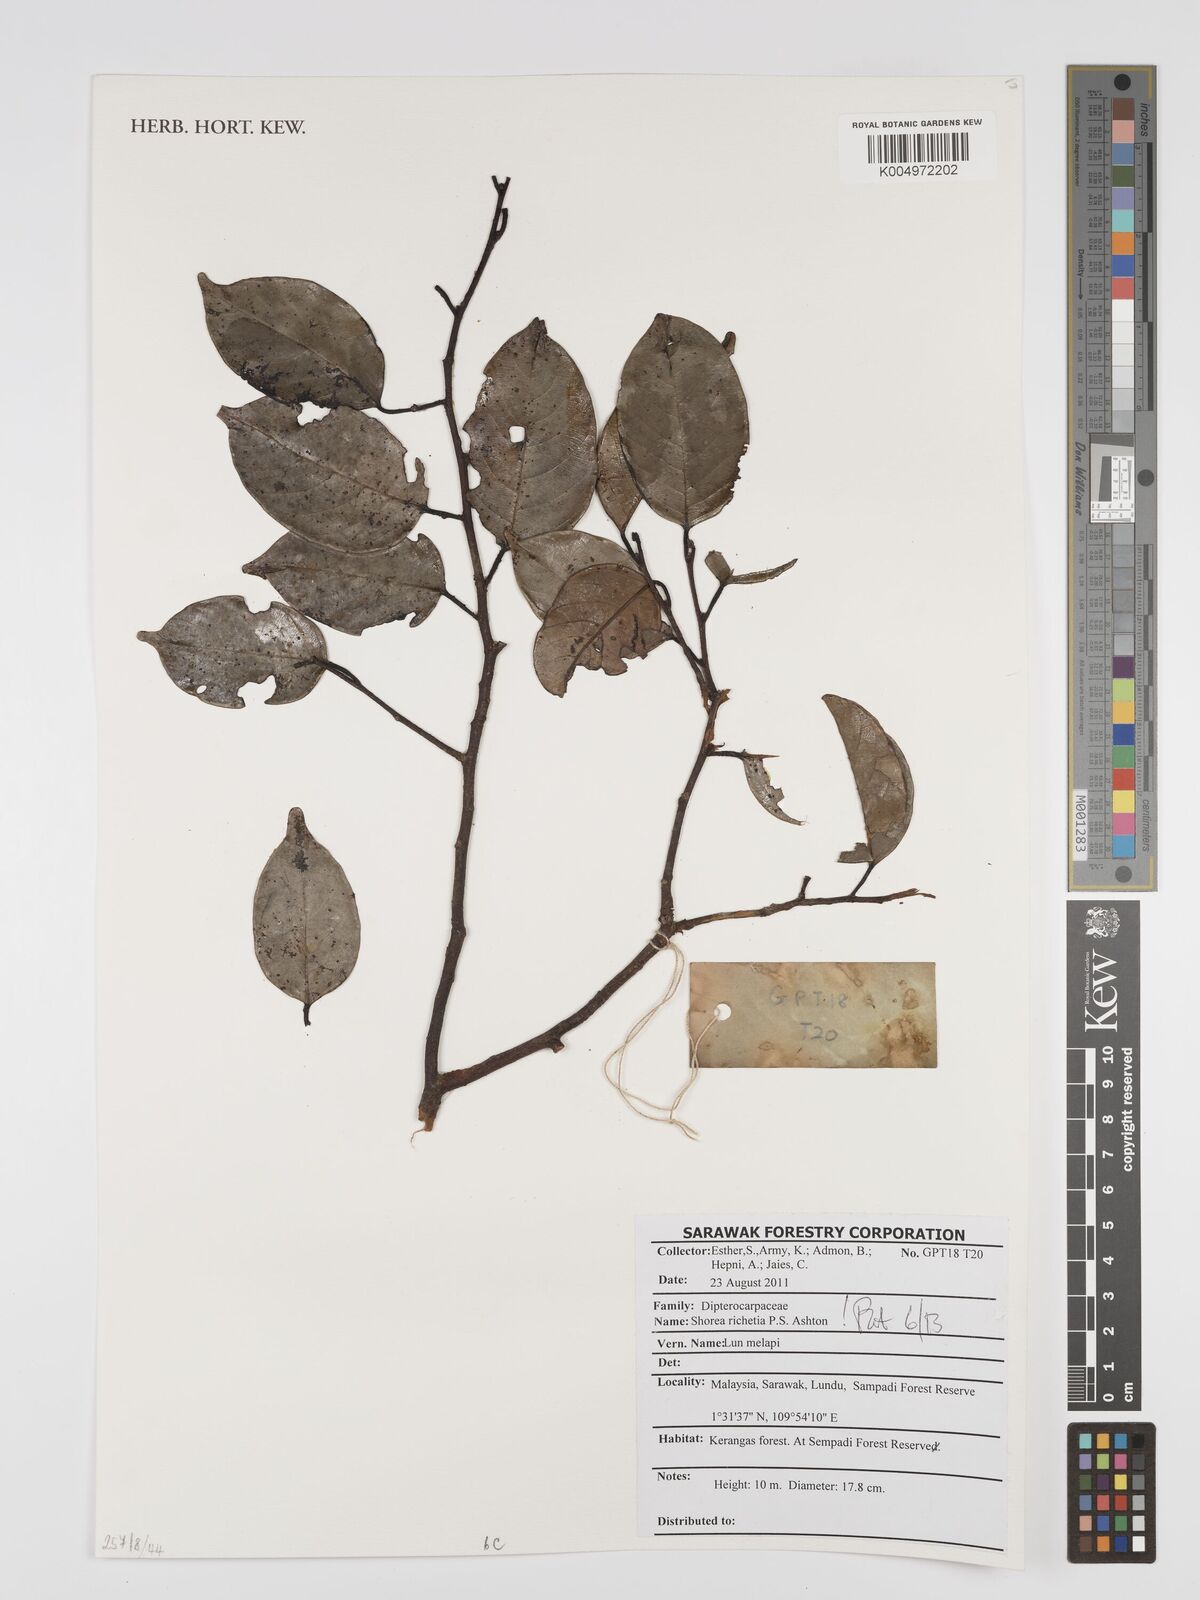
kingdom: Plantae
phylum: Tracheophyta
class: Magnoliopsida
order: Malvales
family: Dipterocarpaceae
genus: Shorea
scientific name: Shorea richetia
